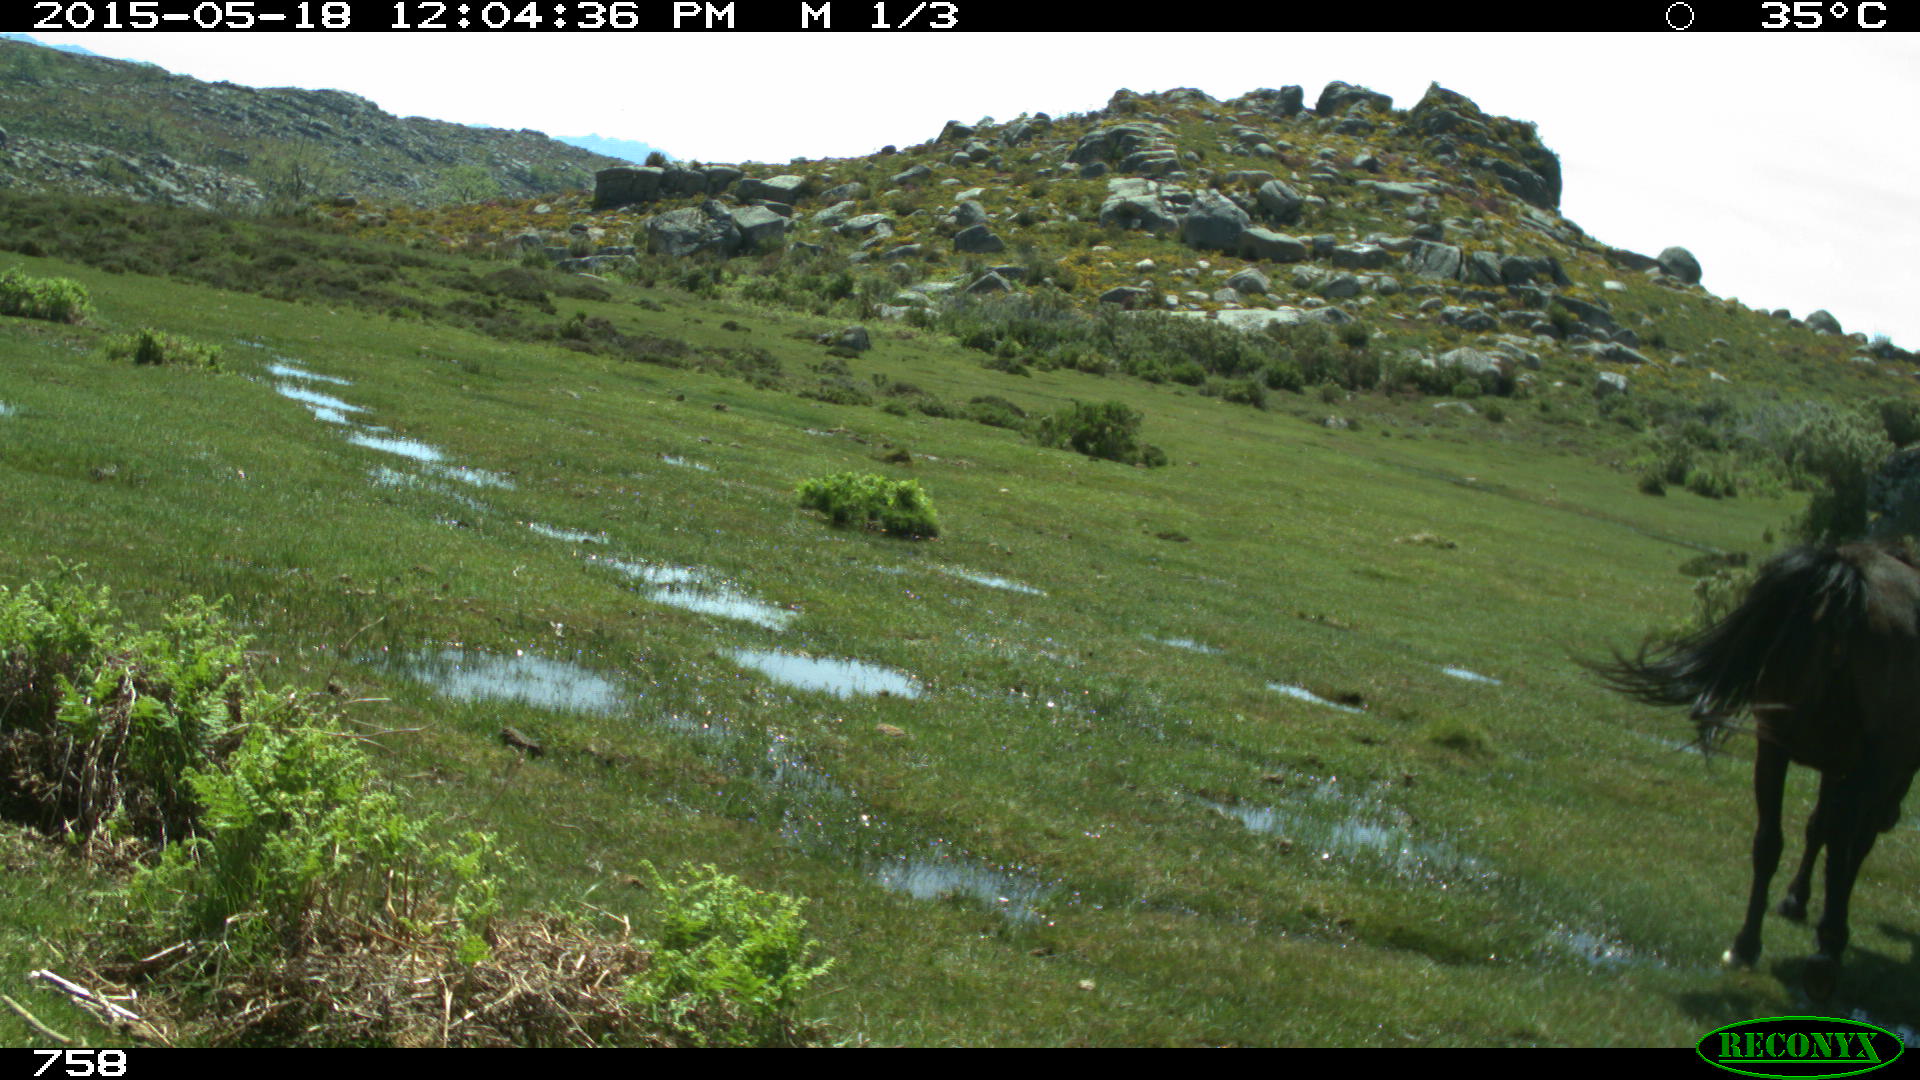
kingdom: Animalia
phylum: Chordata
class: Mammalia
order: Perissodactyla
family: Equidae
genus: Equus
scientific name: Equus caballus
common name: Horse
